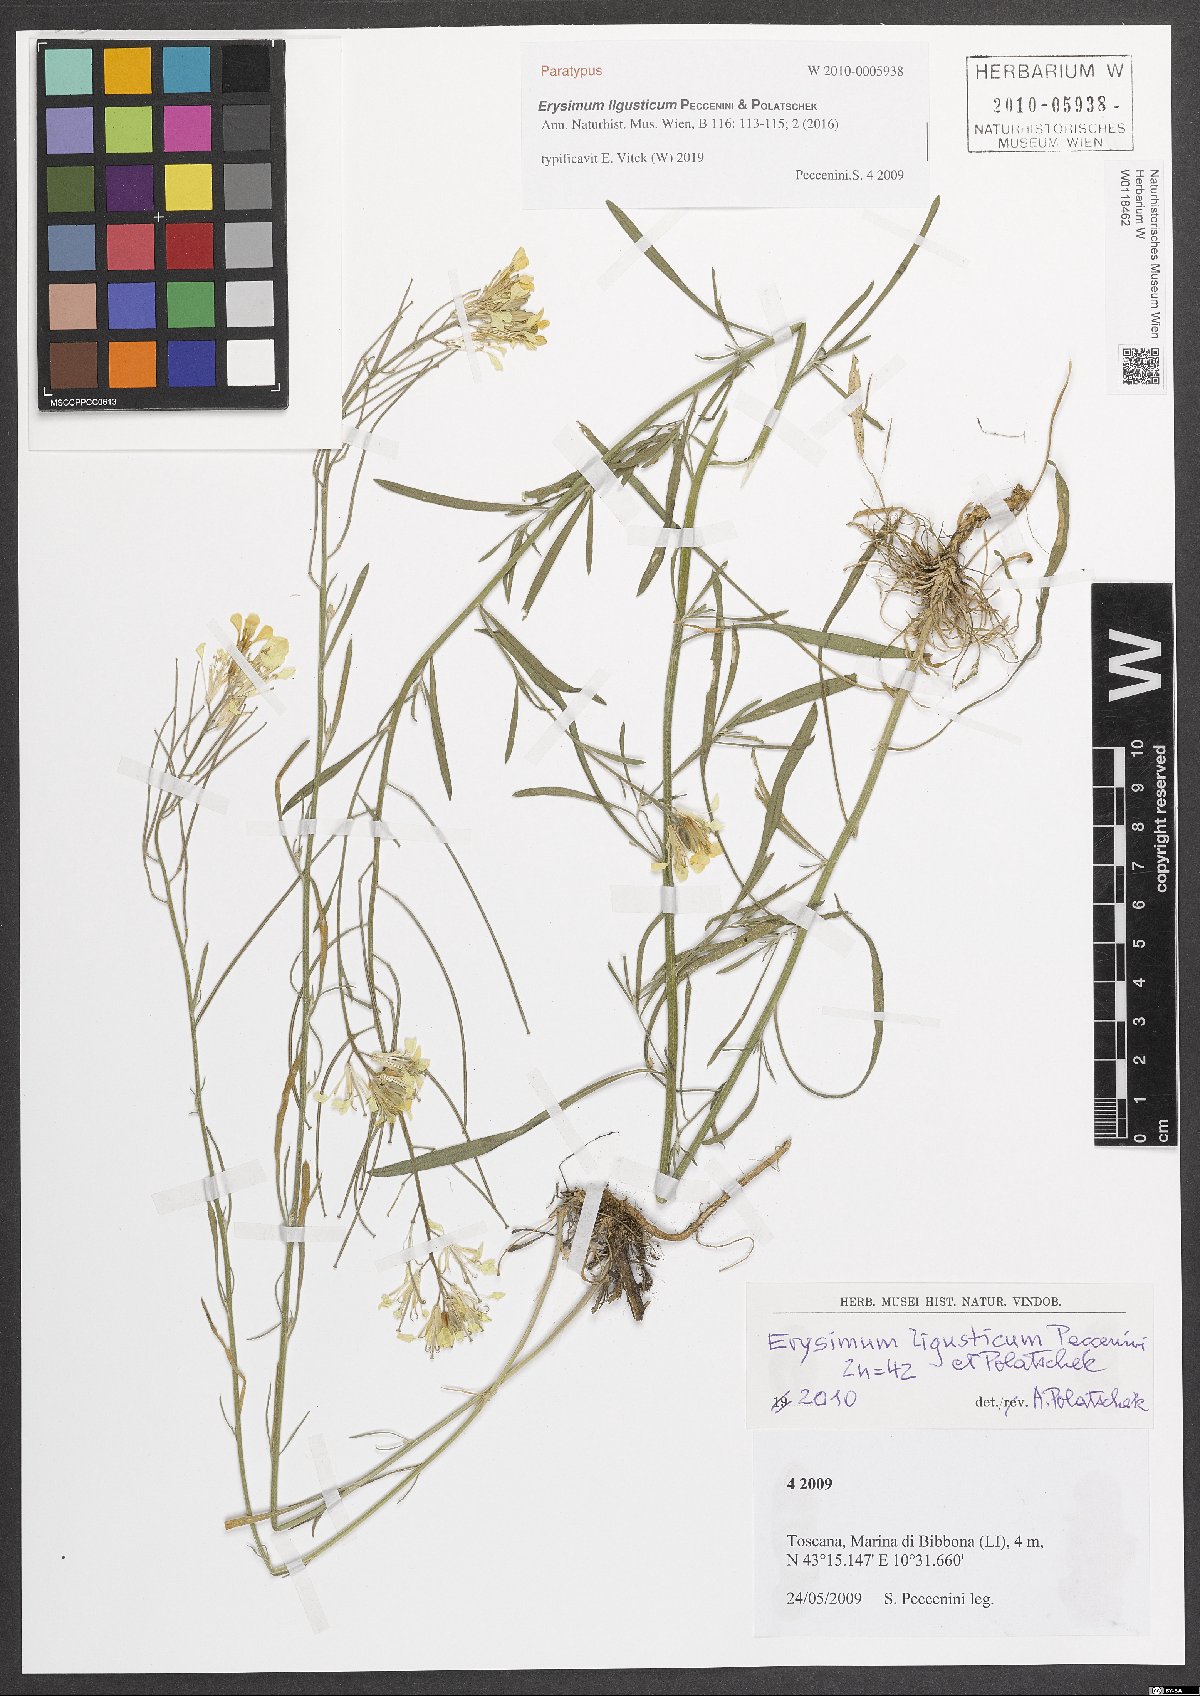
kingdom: Plantae
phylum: Tracheophyta
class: Magnoliopsida
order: Brassicales
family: Brassicaceae
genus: Erysimum
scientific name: Erysimum ligusticum
